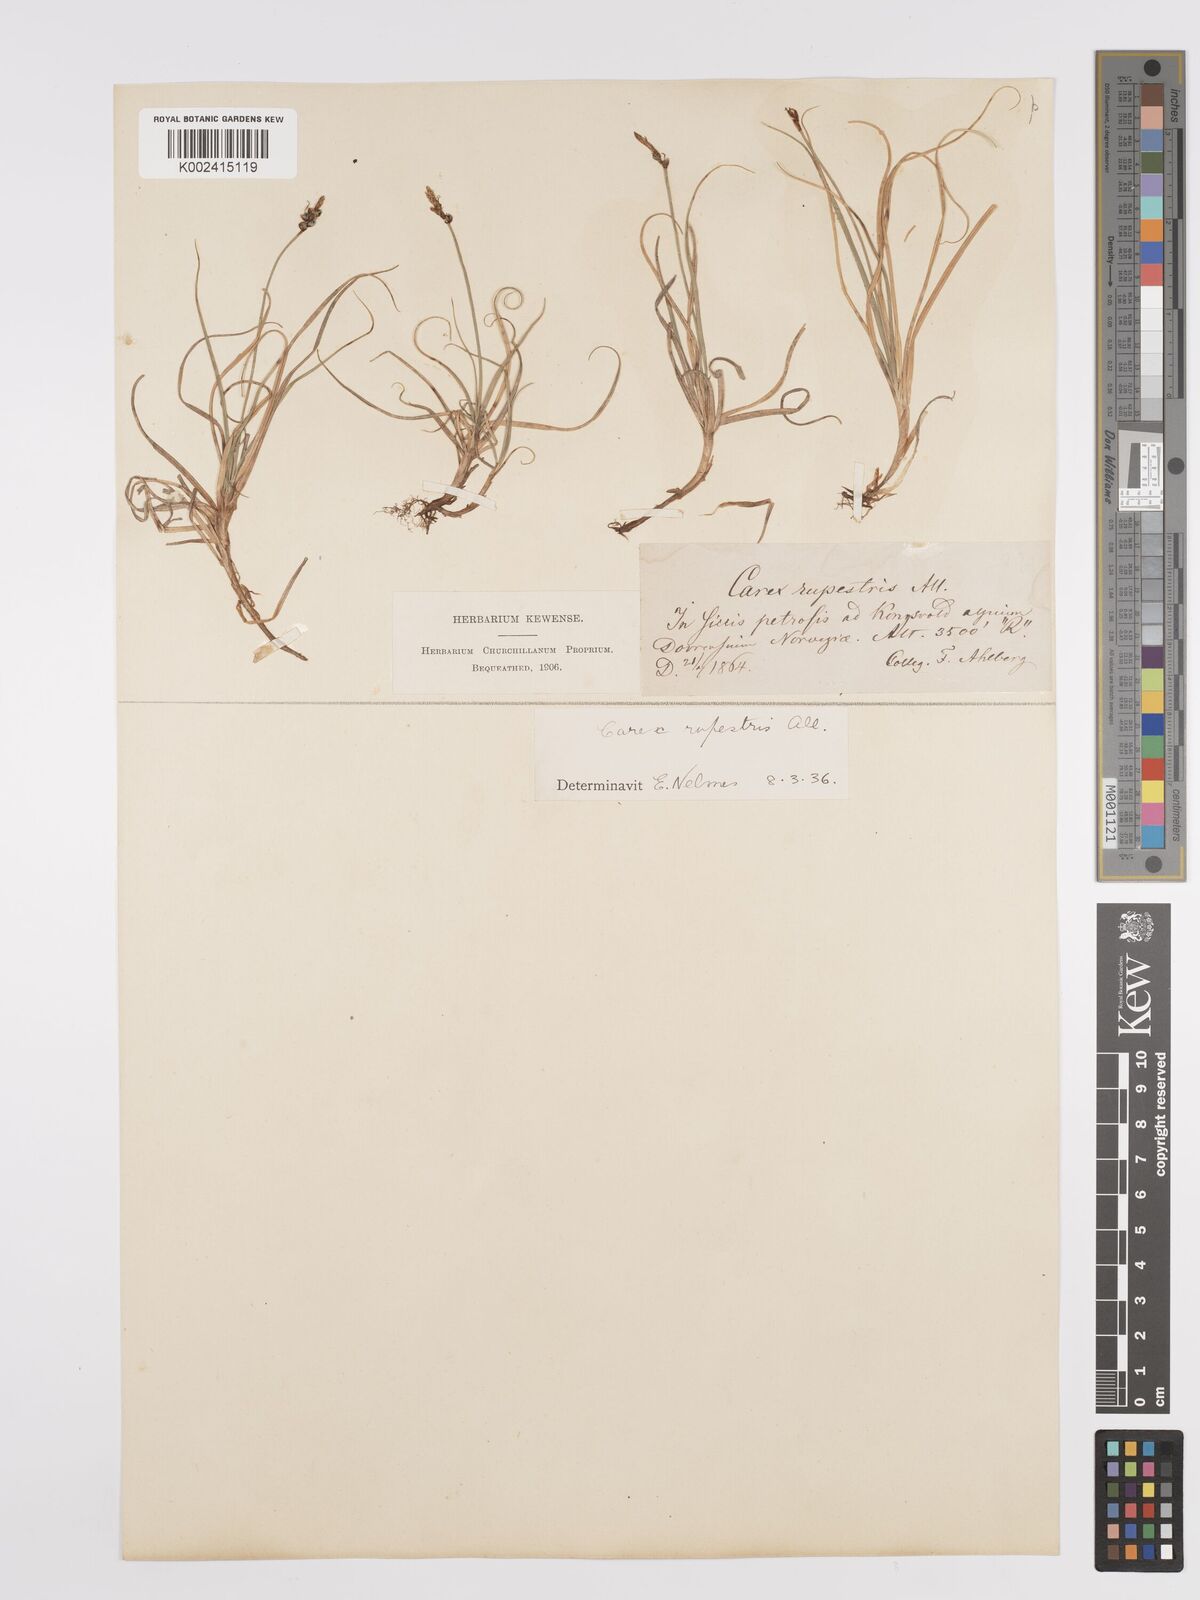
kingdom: Plantae
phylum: Tracheophyta
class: Liliopsida
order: Poales
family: Cyperaceae
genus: Carex
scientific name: Carex rupestris
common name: Rock sedge
